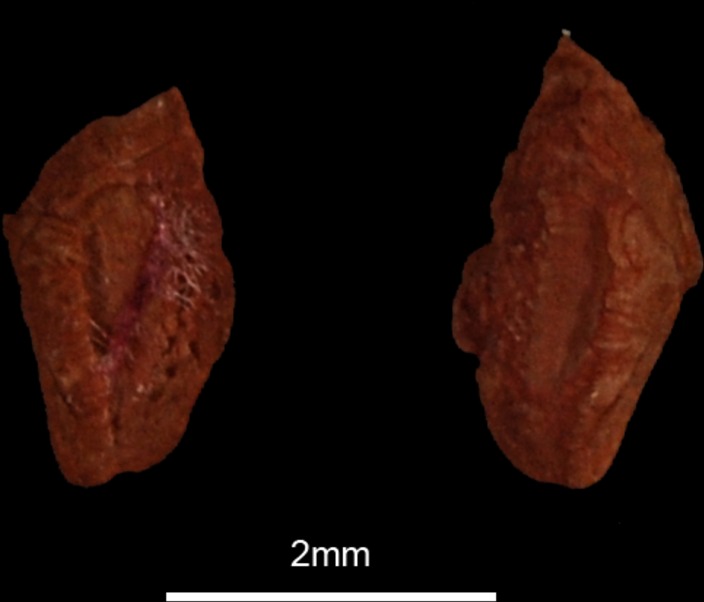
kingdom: Animalia
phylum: Chordata
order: Perciformes
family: Labridae
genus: Symphodus
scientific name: Symphodus tinca
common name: Peacock wrasse
